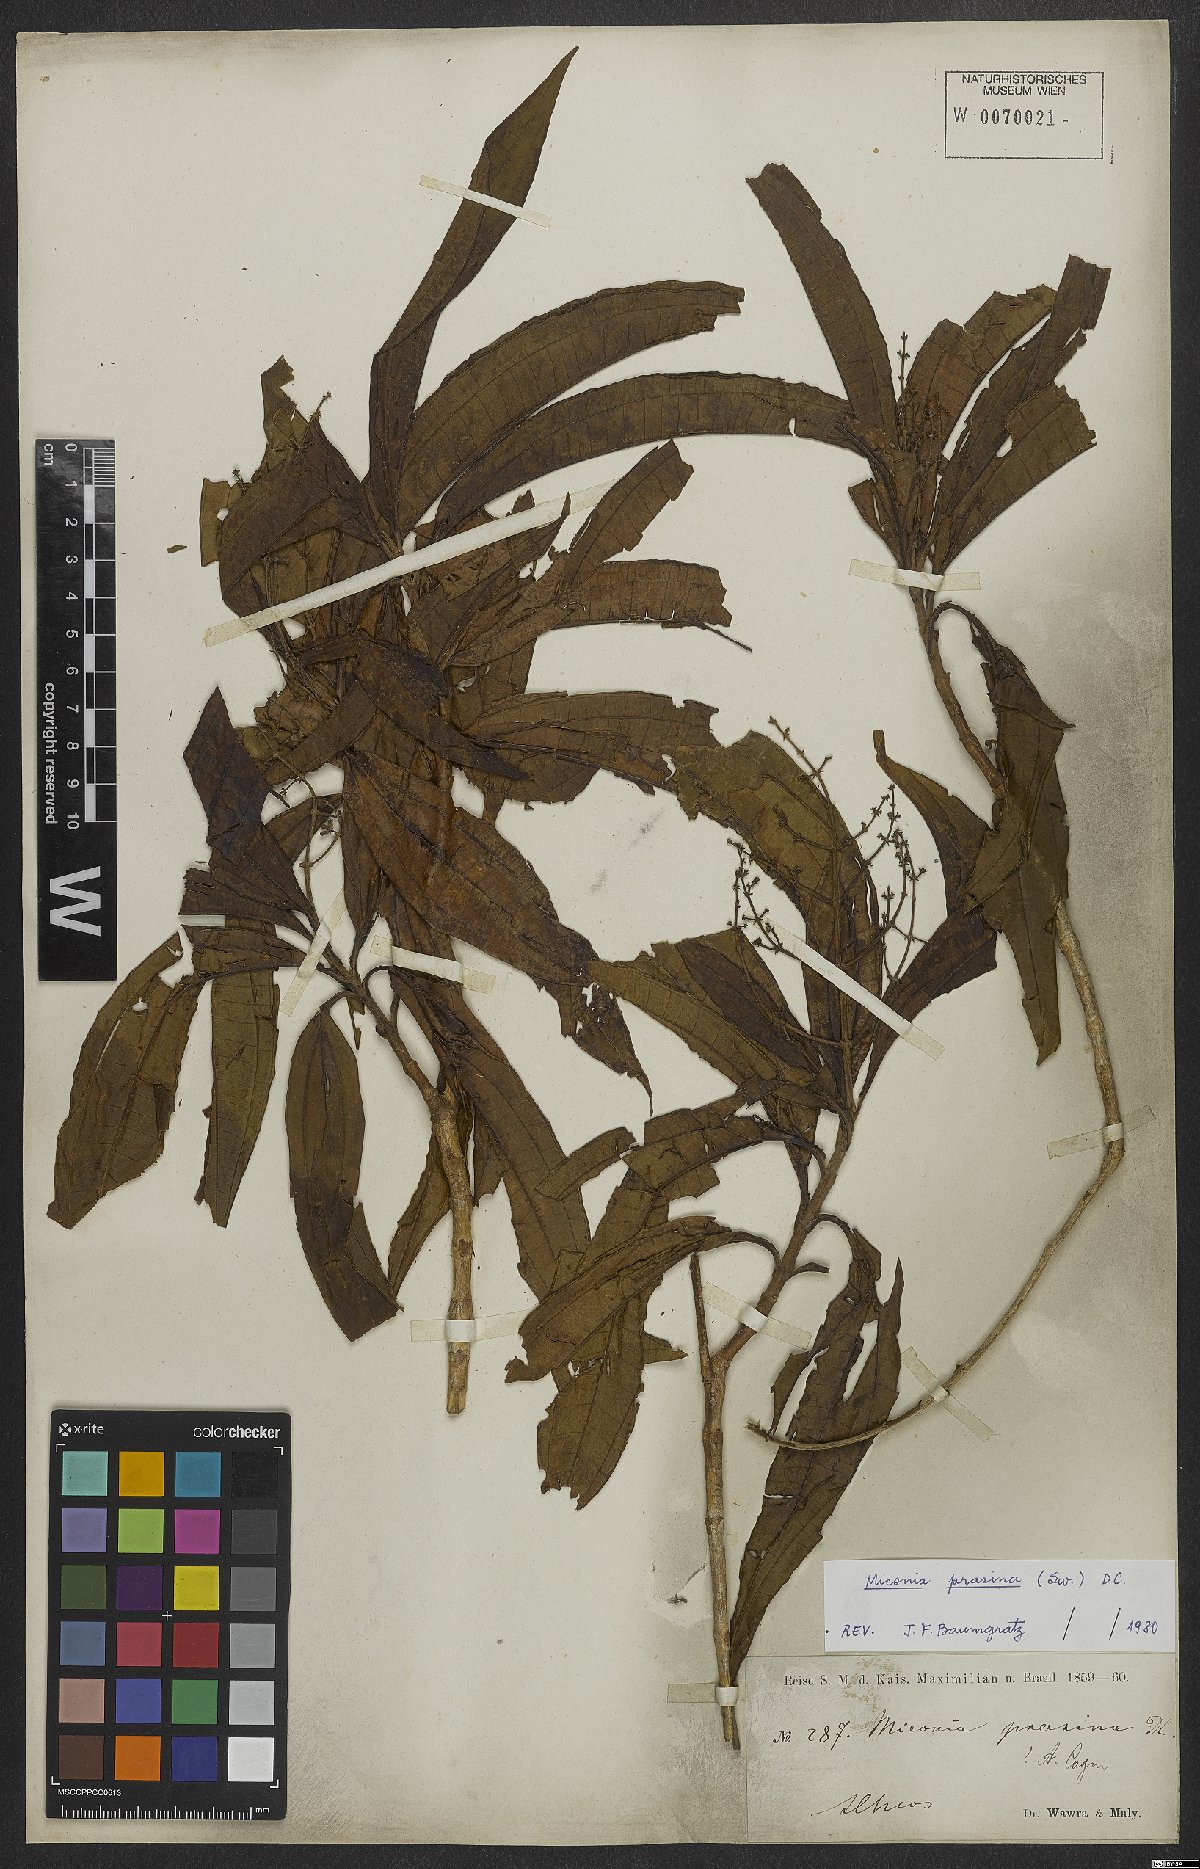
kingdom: Plantae
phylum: Tracheophyta
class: Magnoliopsida
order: Myrtales
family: Melastomataceae
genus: Miconia
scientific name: Miconia prasina
